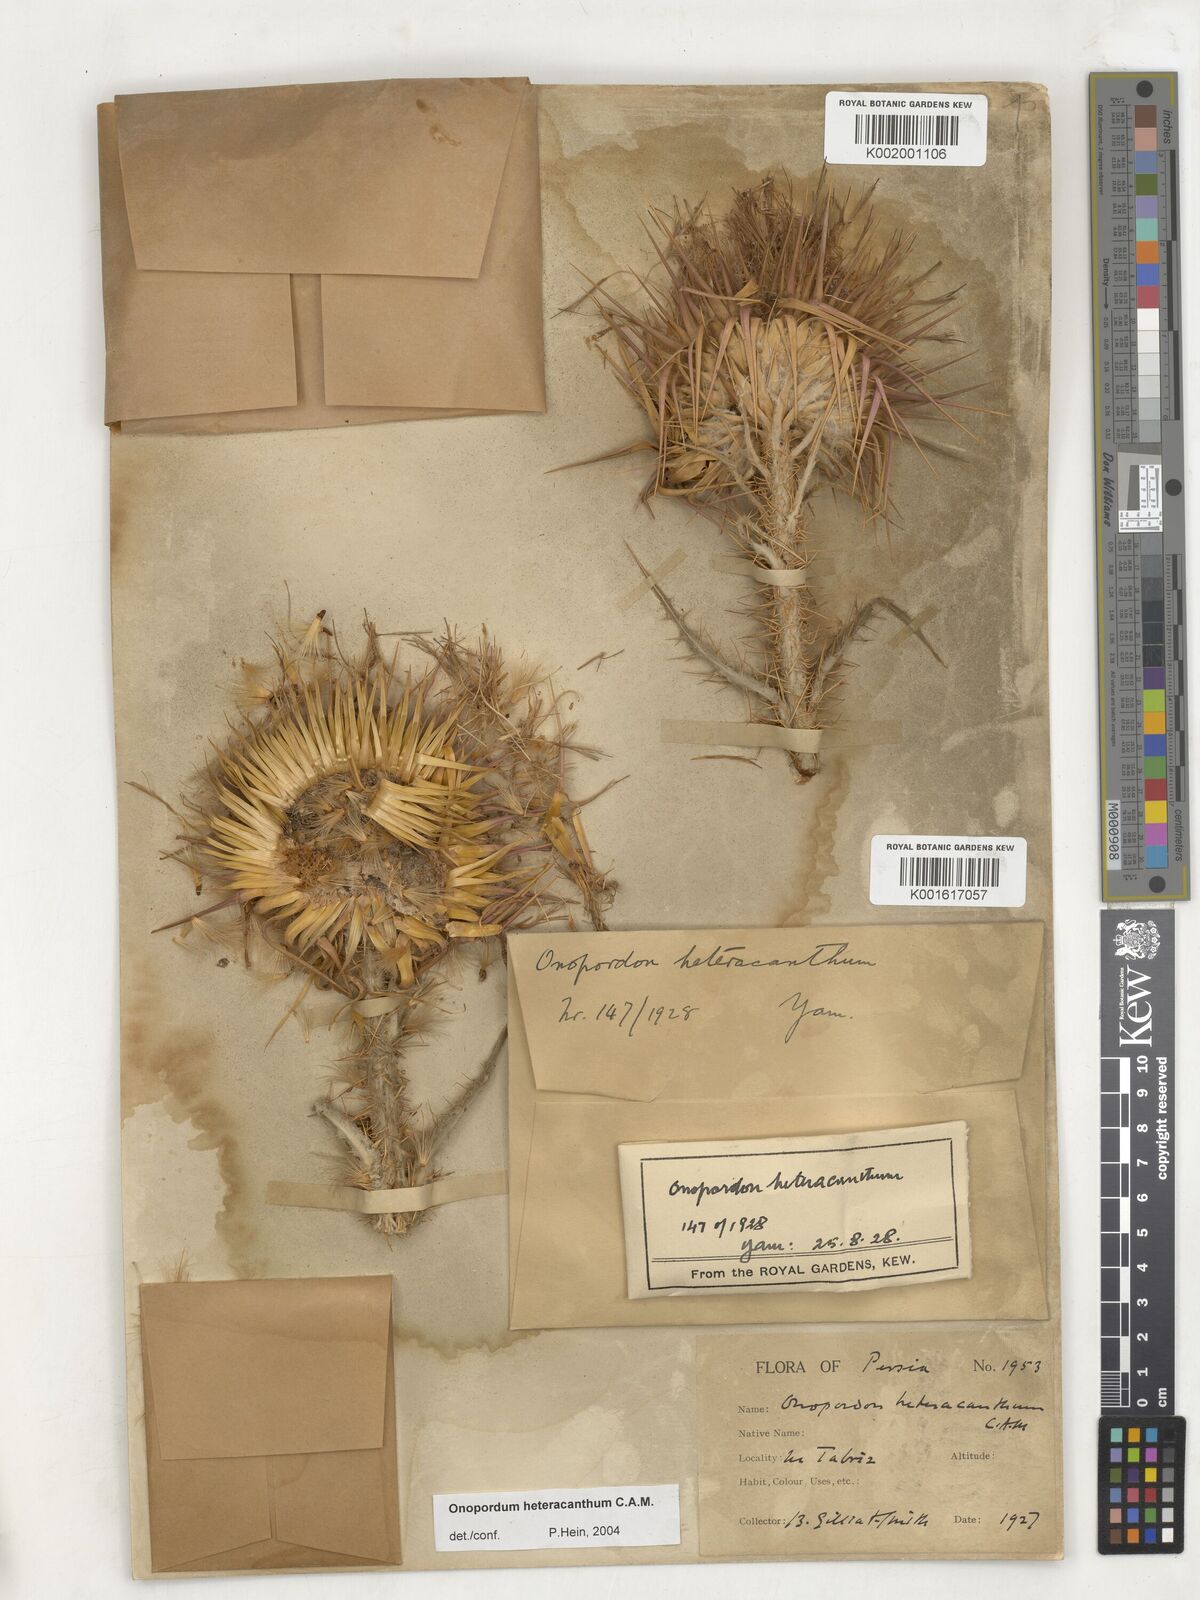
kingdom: Plantae
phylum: Tracheophyta
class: Magnoliopsida
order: Asterales
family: Asteraceae
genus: Onopordum
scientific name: Onopordum heteracanthum
